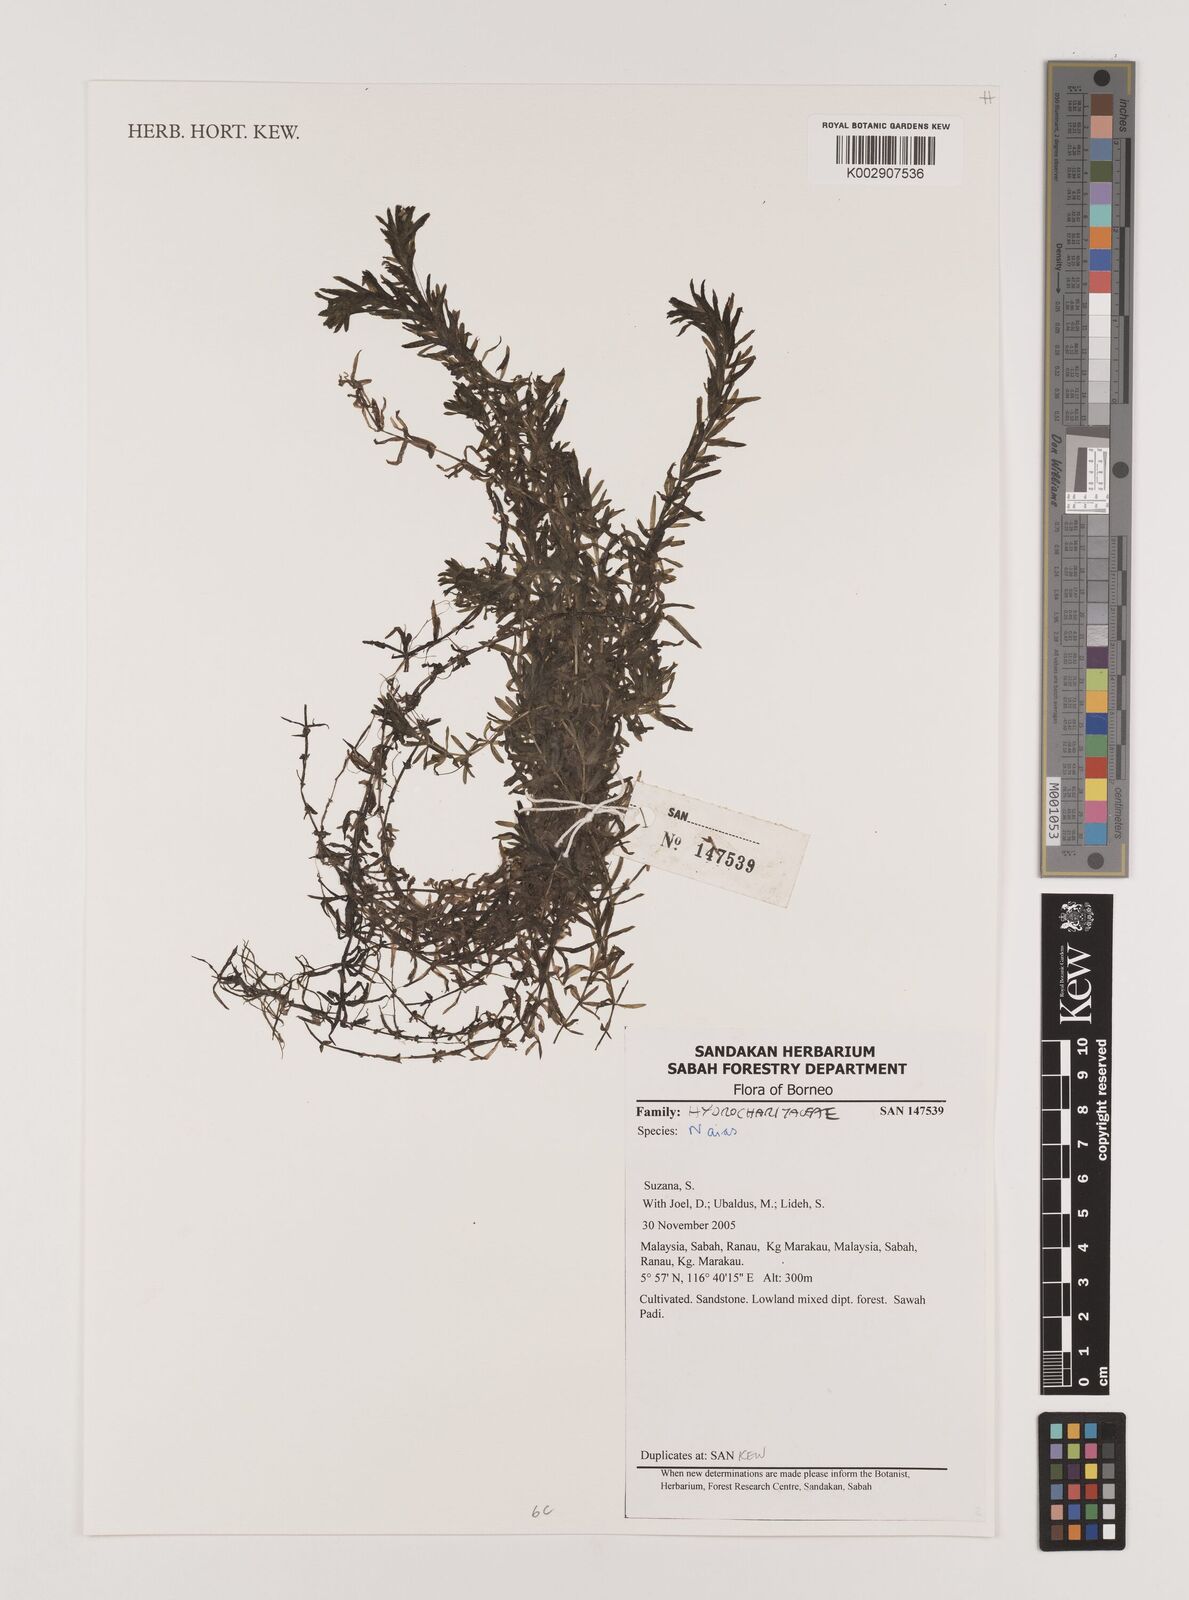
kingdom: Plantae
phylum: Tracheophyta
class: Liliopsida
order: Alismatales
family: Hydrocharitaceae
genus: Najas
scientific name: Najas
